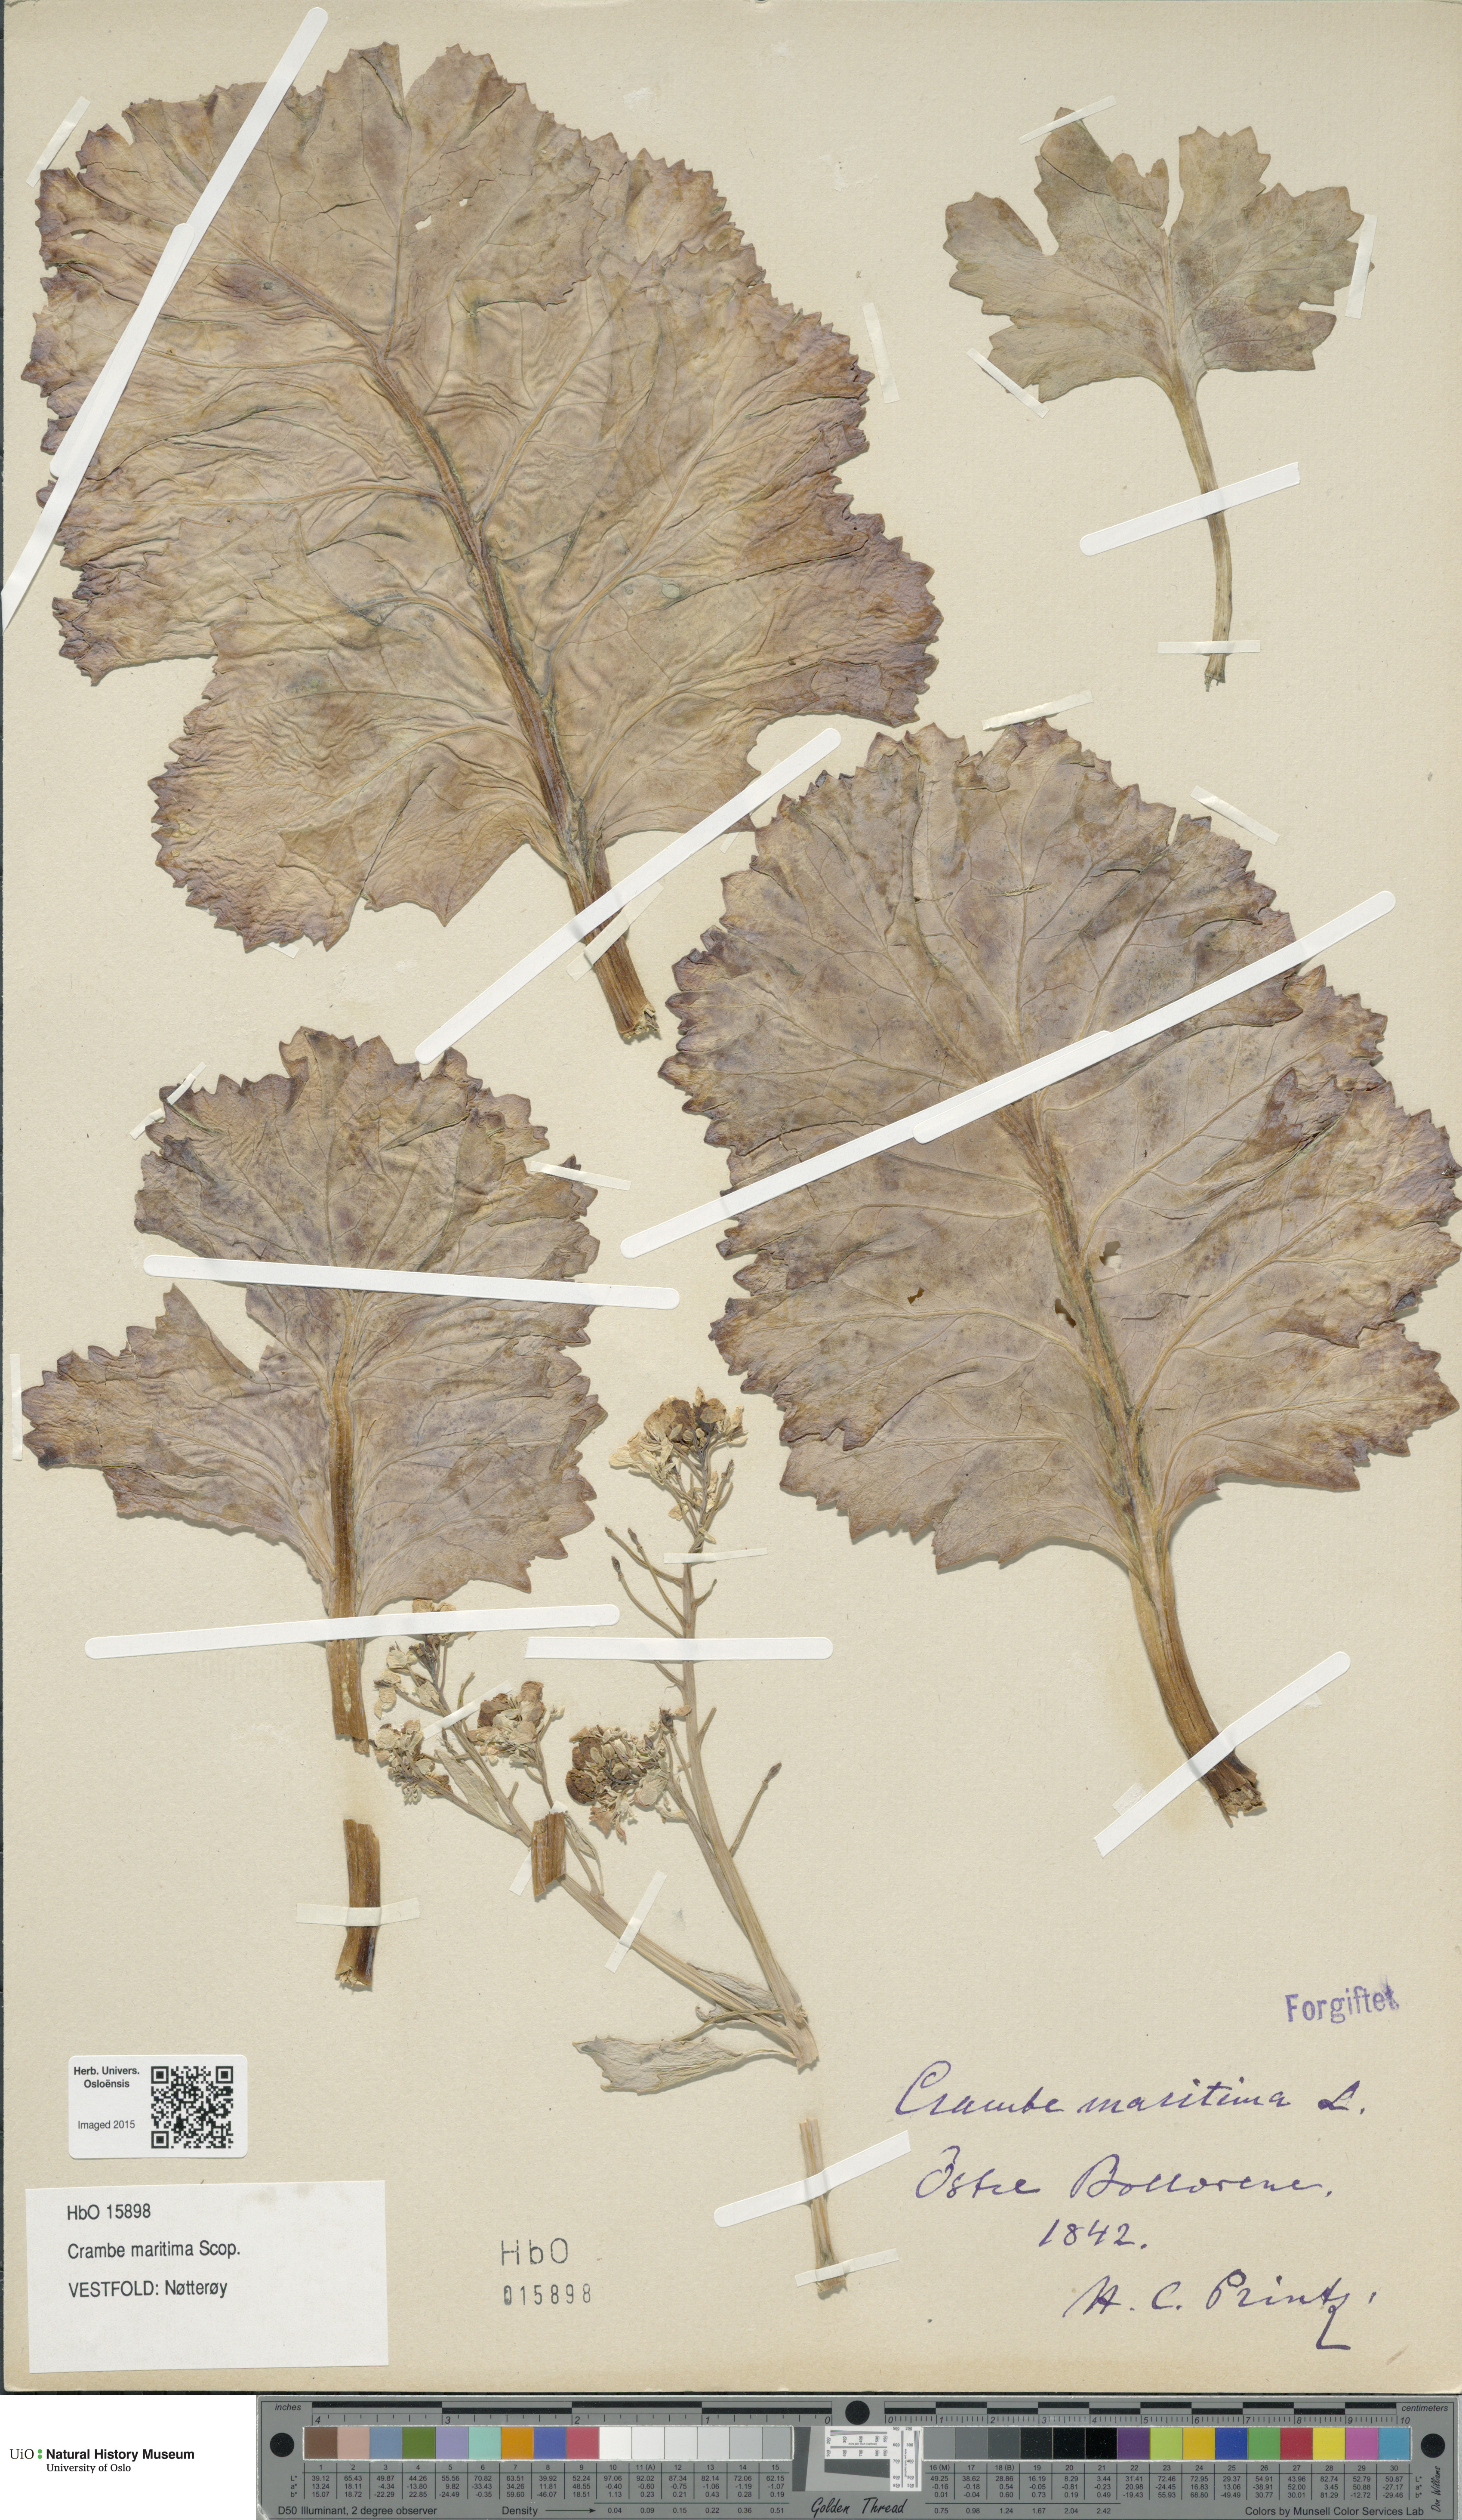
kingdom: Plantae
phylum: Tracheophyta
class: Magnoliopsida
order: Brassicales
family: Brassicaceae
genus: Crambe
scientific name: Crambe maritima
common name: Sea-kale
